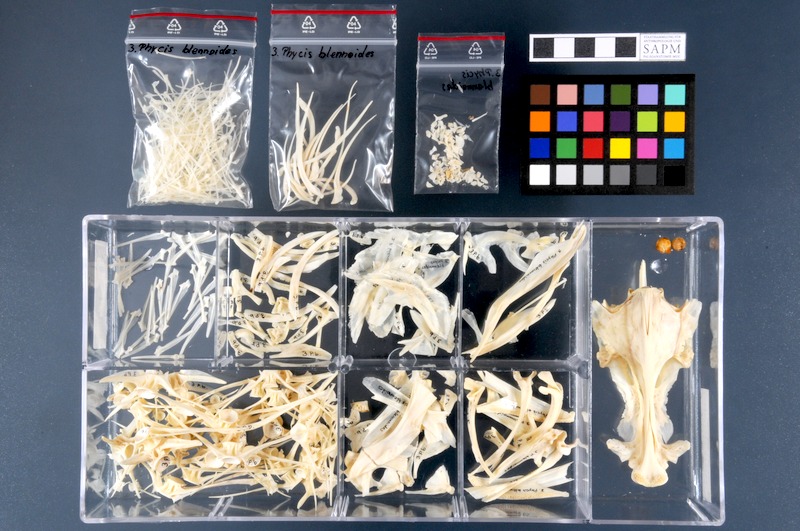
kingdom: Animalia
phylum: Chordata
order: Gadiformes
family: Phycidae
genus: Phycis
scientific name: Phycis blennoides
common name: Forked hake
